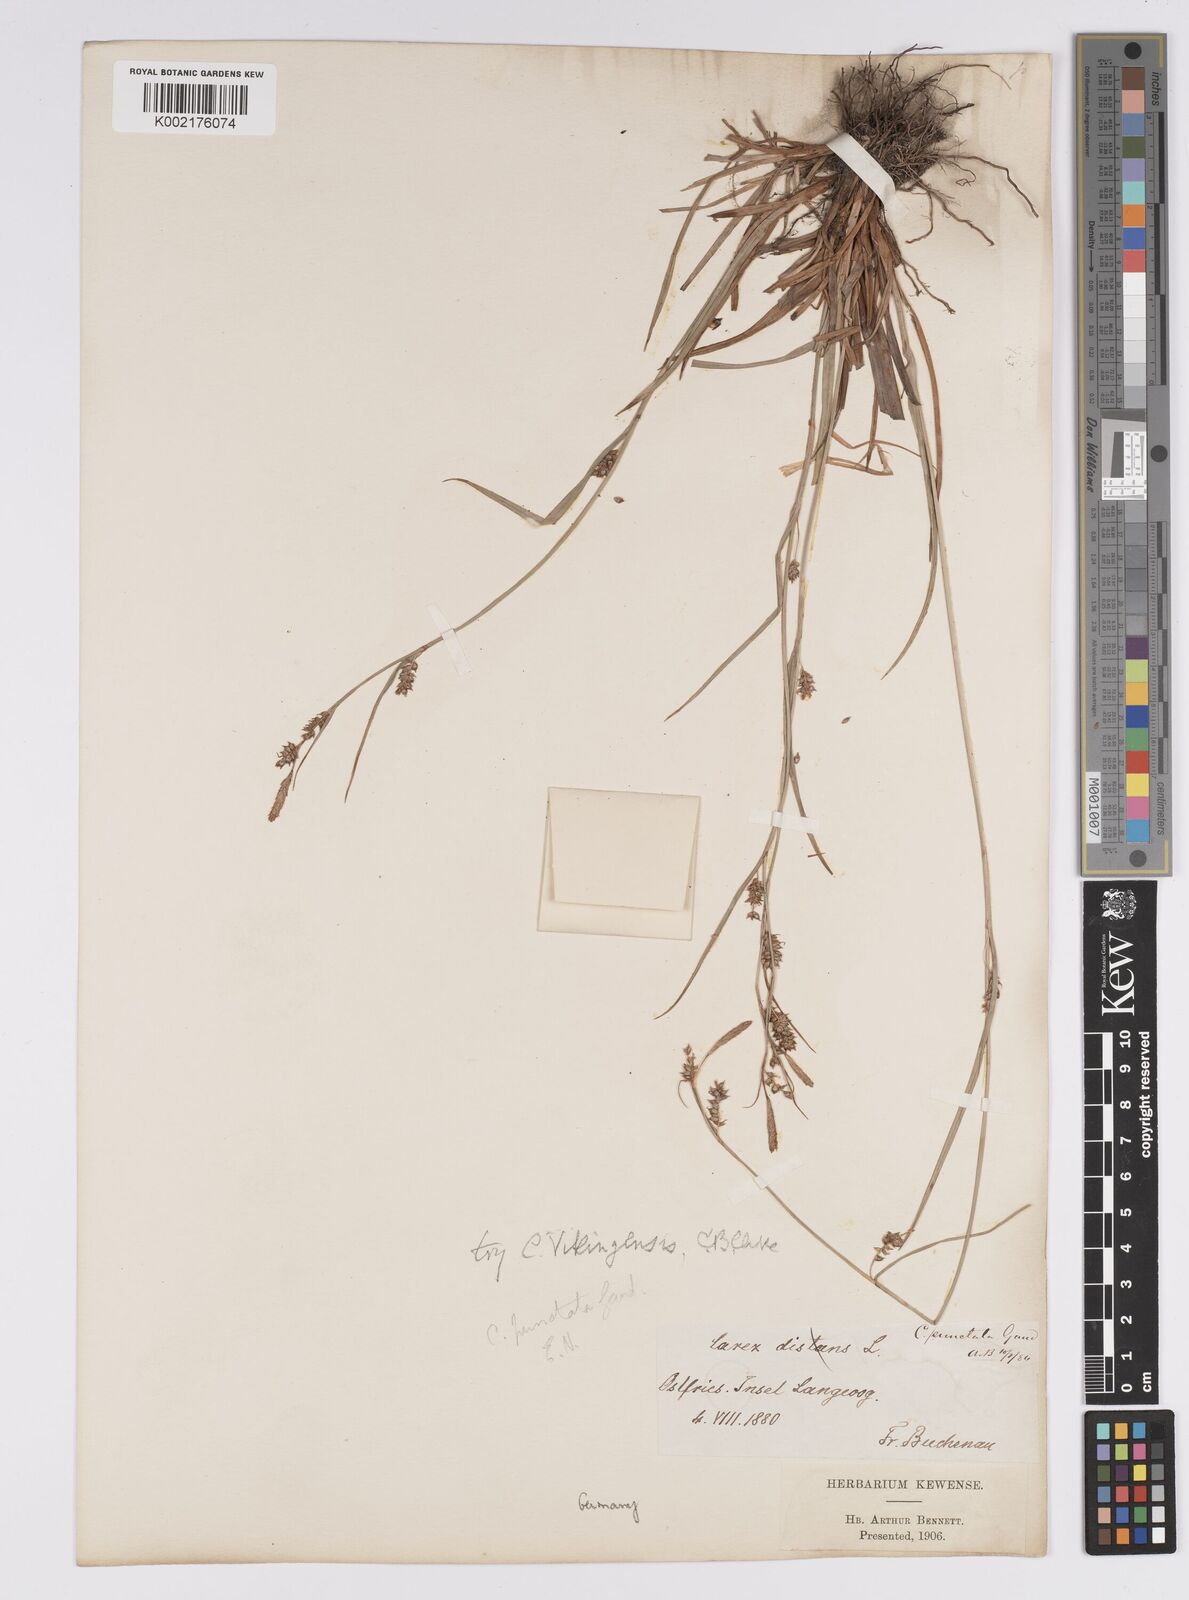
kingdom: Plantae
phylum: Tracheophyta
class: Liliopsida
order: Poales
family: Cyperaceae
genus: Carex
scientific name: Carex punctata
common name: Dotted sedge
